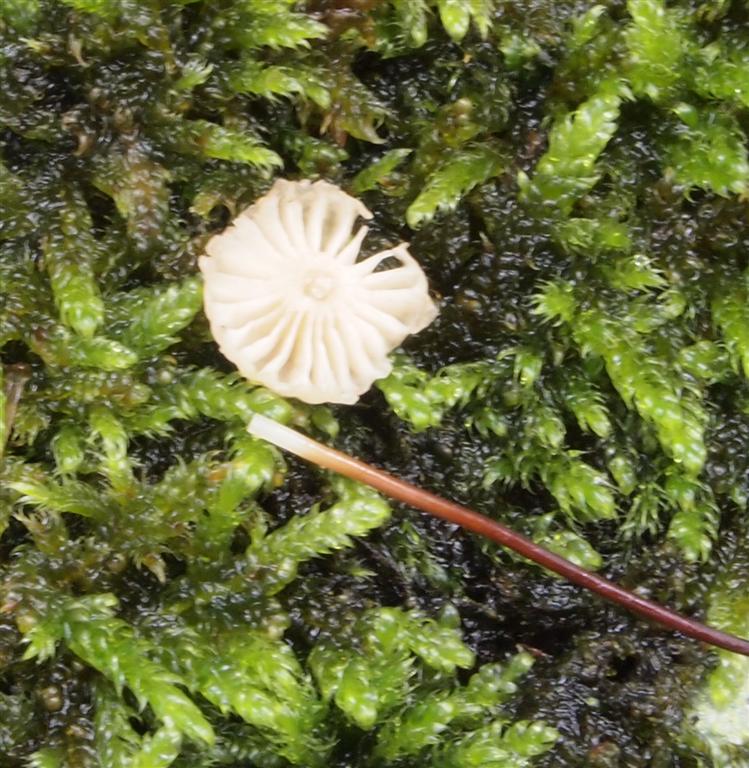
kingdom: Fungi
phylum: Basidiomycota
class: Agaricomycetes
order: Agaricales
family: Marasmiaceae
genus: Marasmius
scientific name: Marasmius rotula
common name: hjul-bruskhat
